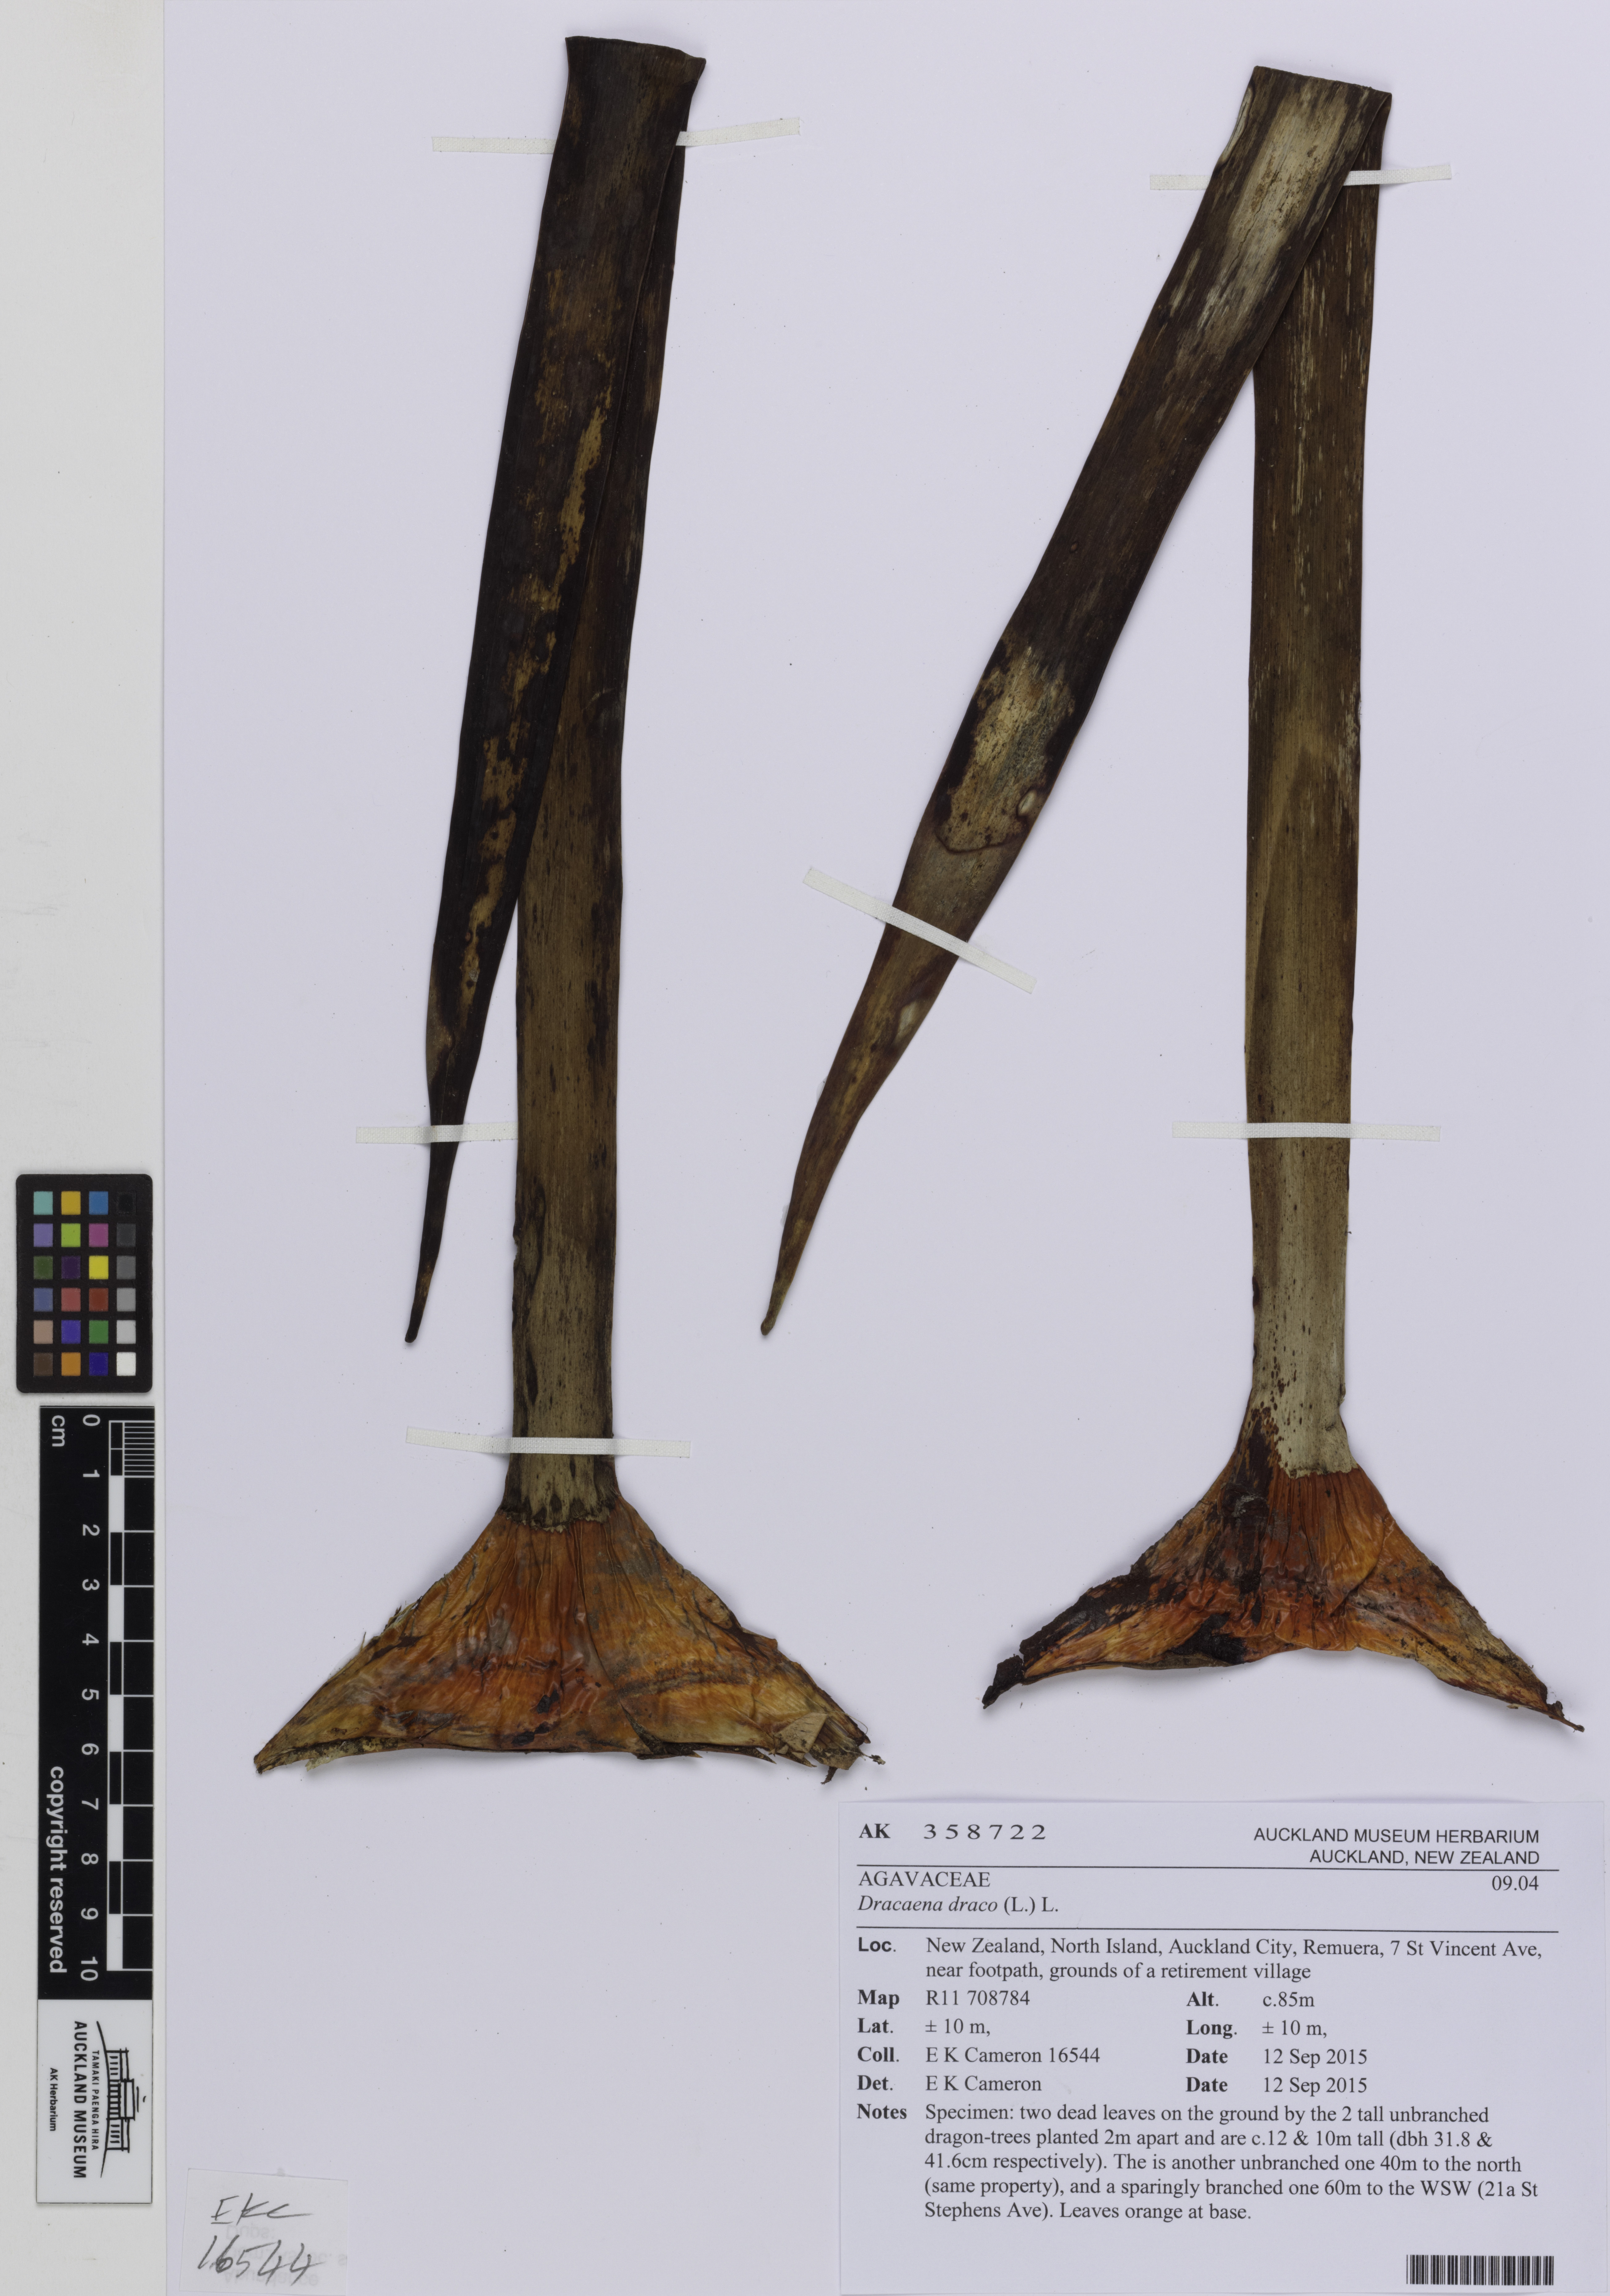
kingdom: Plantae
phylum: Tracheophyta
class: Liliopsida
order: Asparagales
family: Asparagaceae
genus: Dracaena
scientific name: Dracaena draco
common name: Canary island dragon tree
